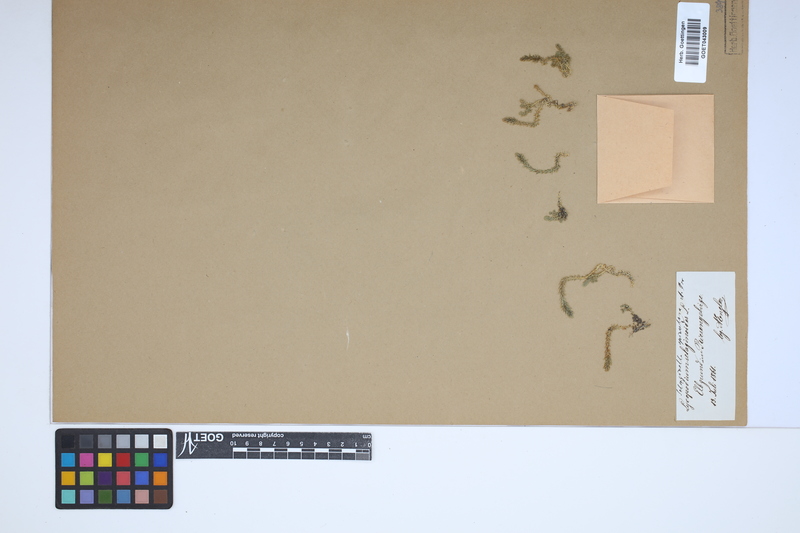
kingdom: Plantae
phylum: Tracheophyta
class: Lycopodiopsida
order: Selaginellales
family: Selaginellaceae
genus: Selaginella
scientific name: Selaginella selaginoides
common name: Prickly mountain-moss
